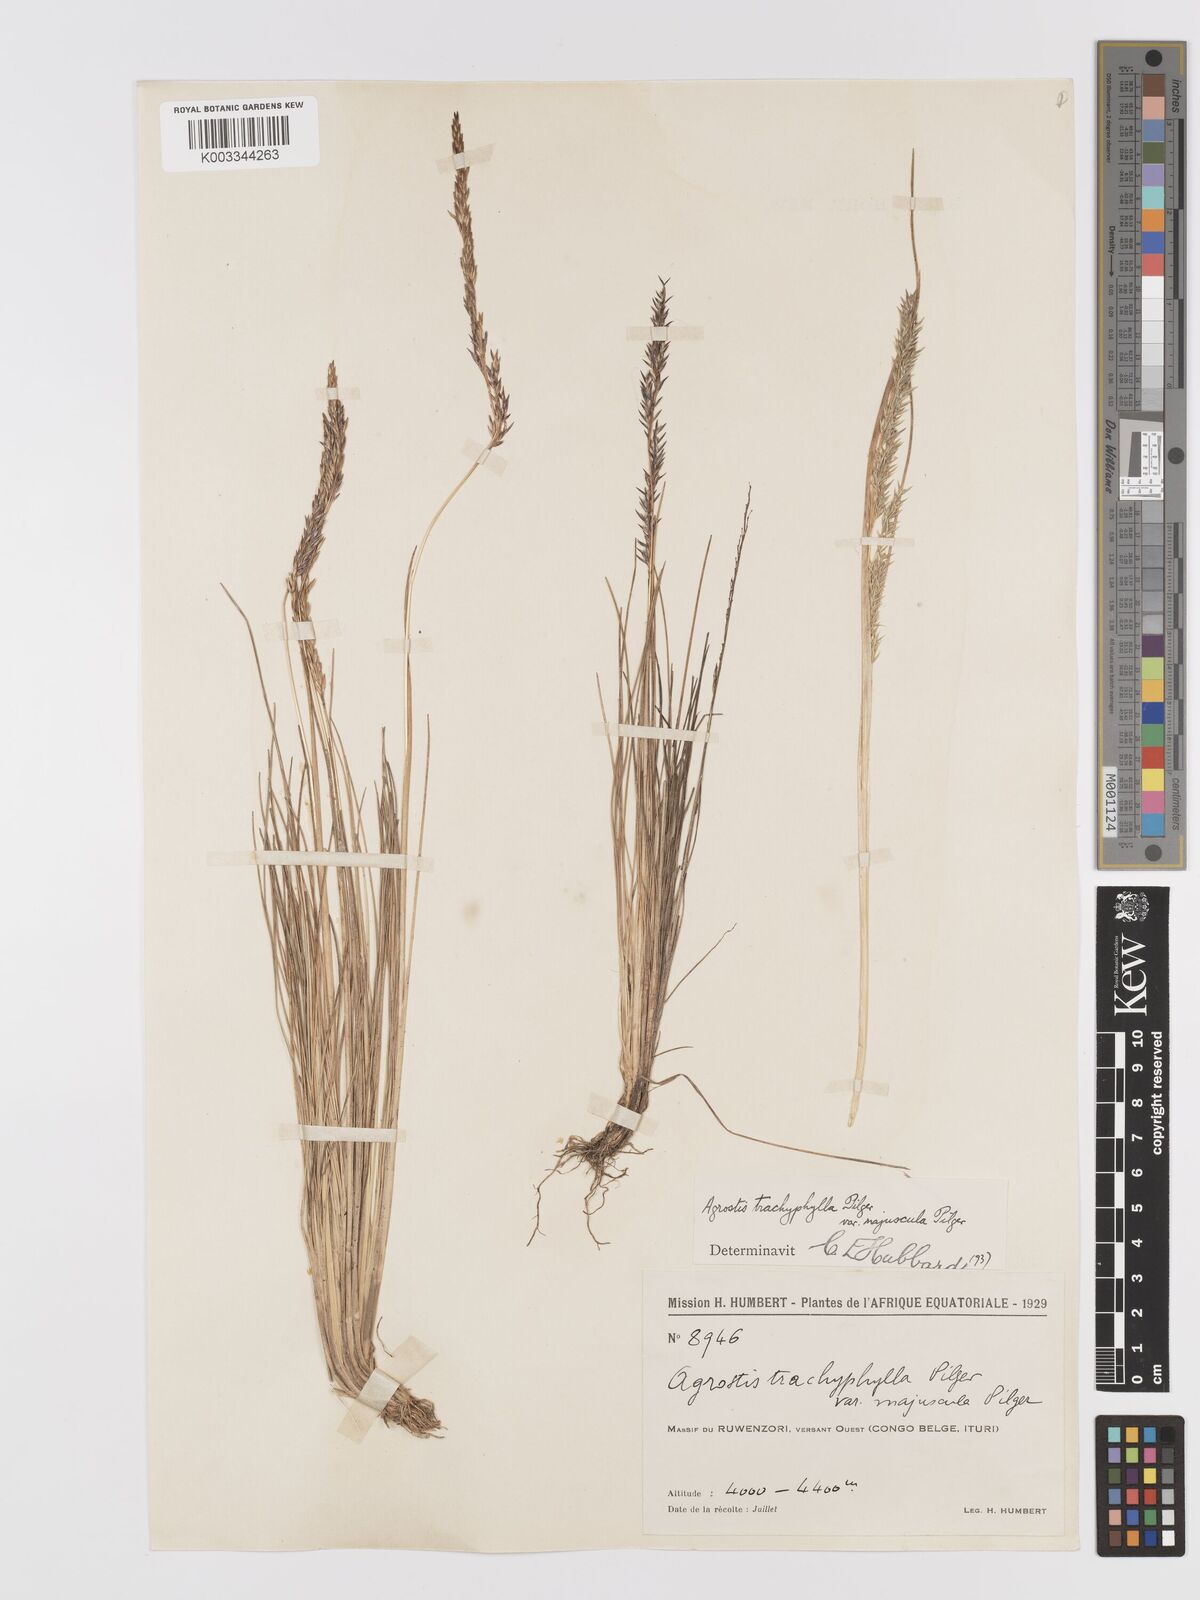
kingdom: Plantae
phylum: Tracheophyta
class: Liliopsida
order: Poales
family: Poaceae
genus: Agrostis
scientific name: Agrostis trachyphylla
